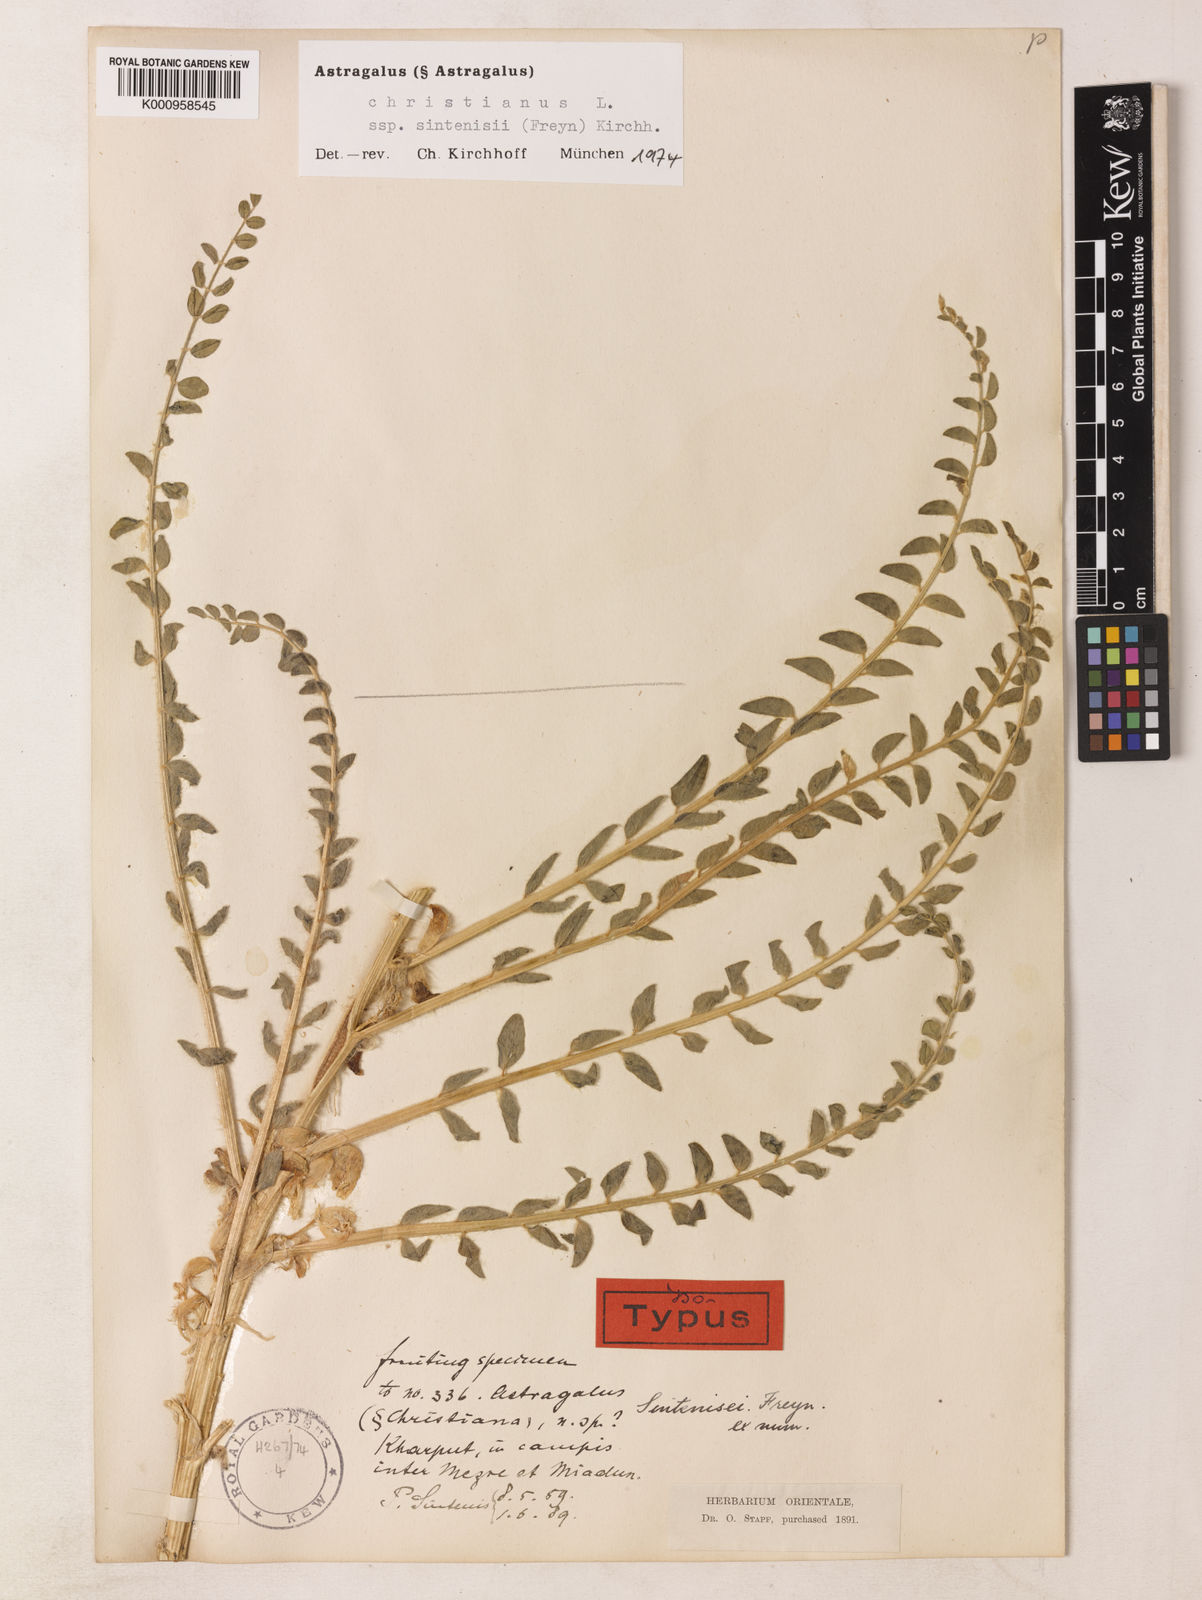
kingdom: Plantae
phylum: Tracheophyta
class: Magnoliopsida
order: Fabales
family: Fabaceae
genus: Astragalus
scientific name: Astragalus christianus
